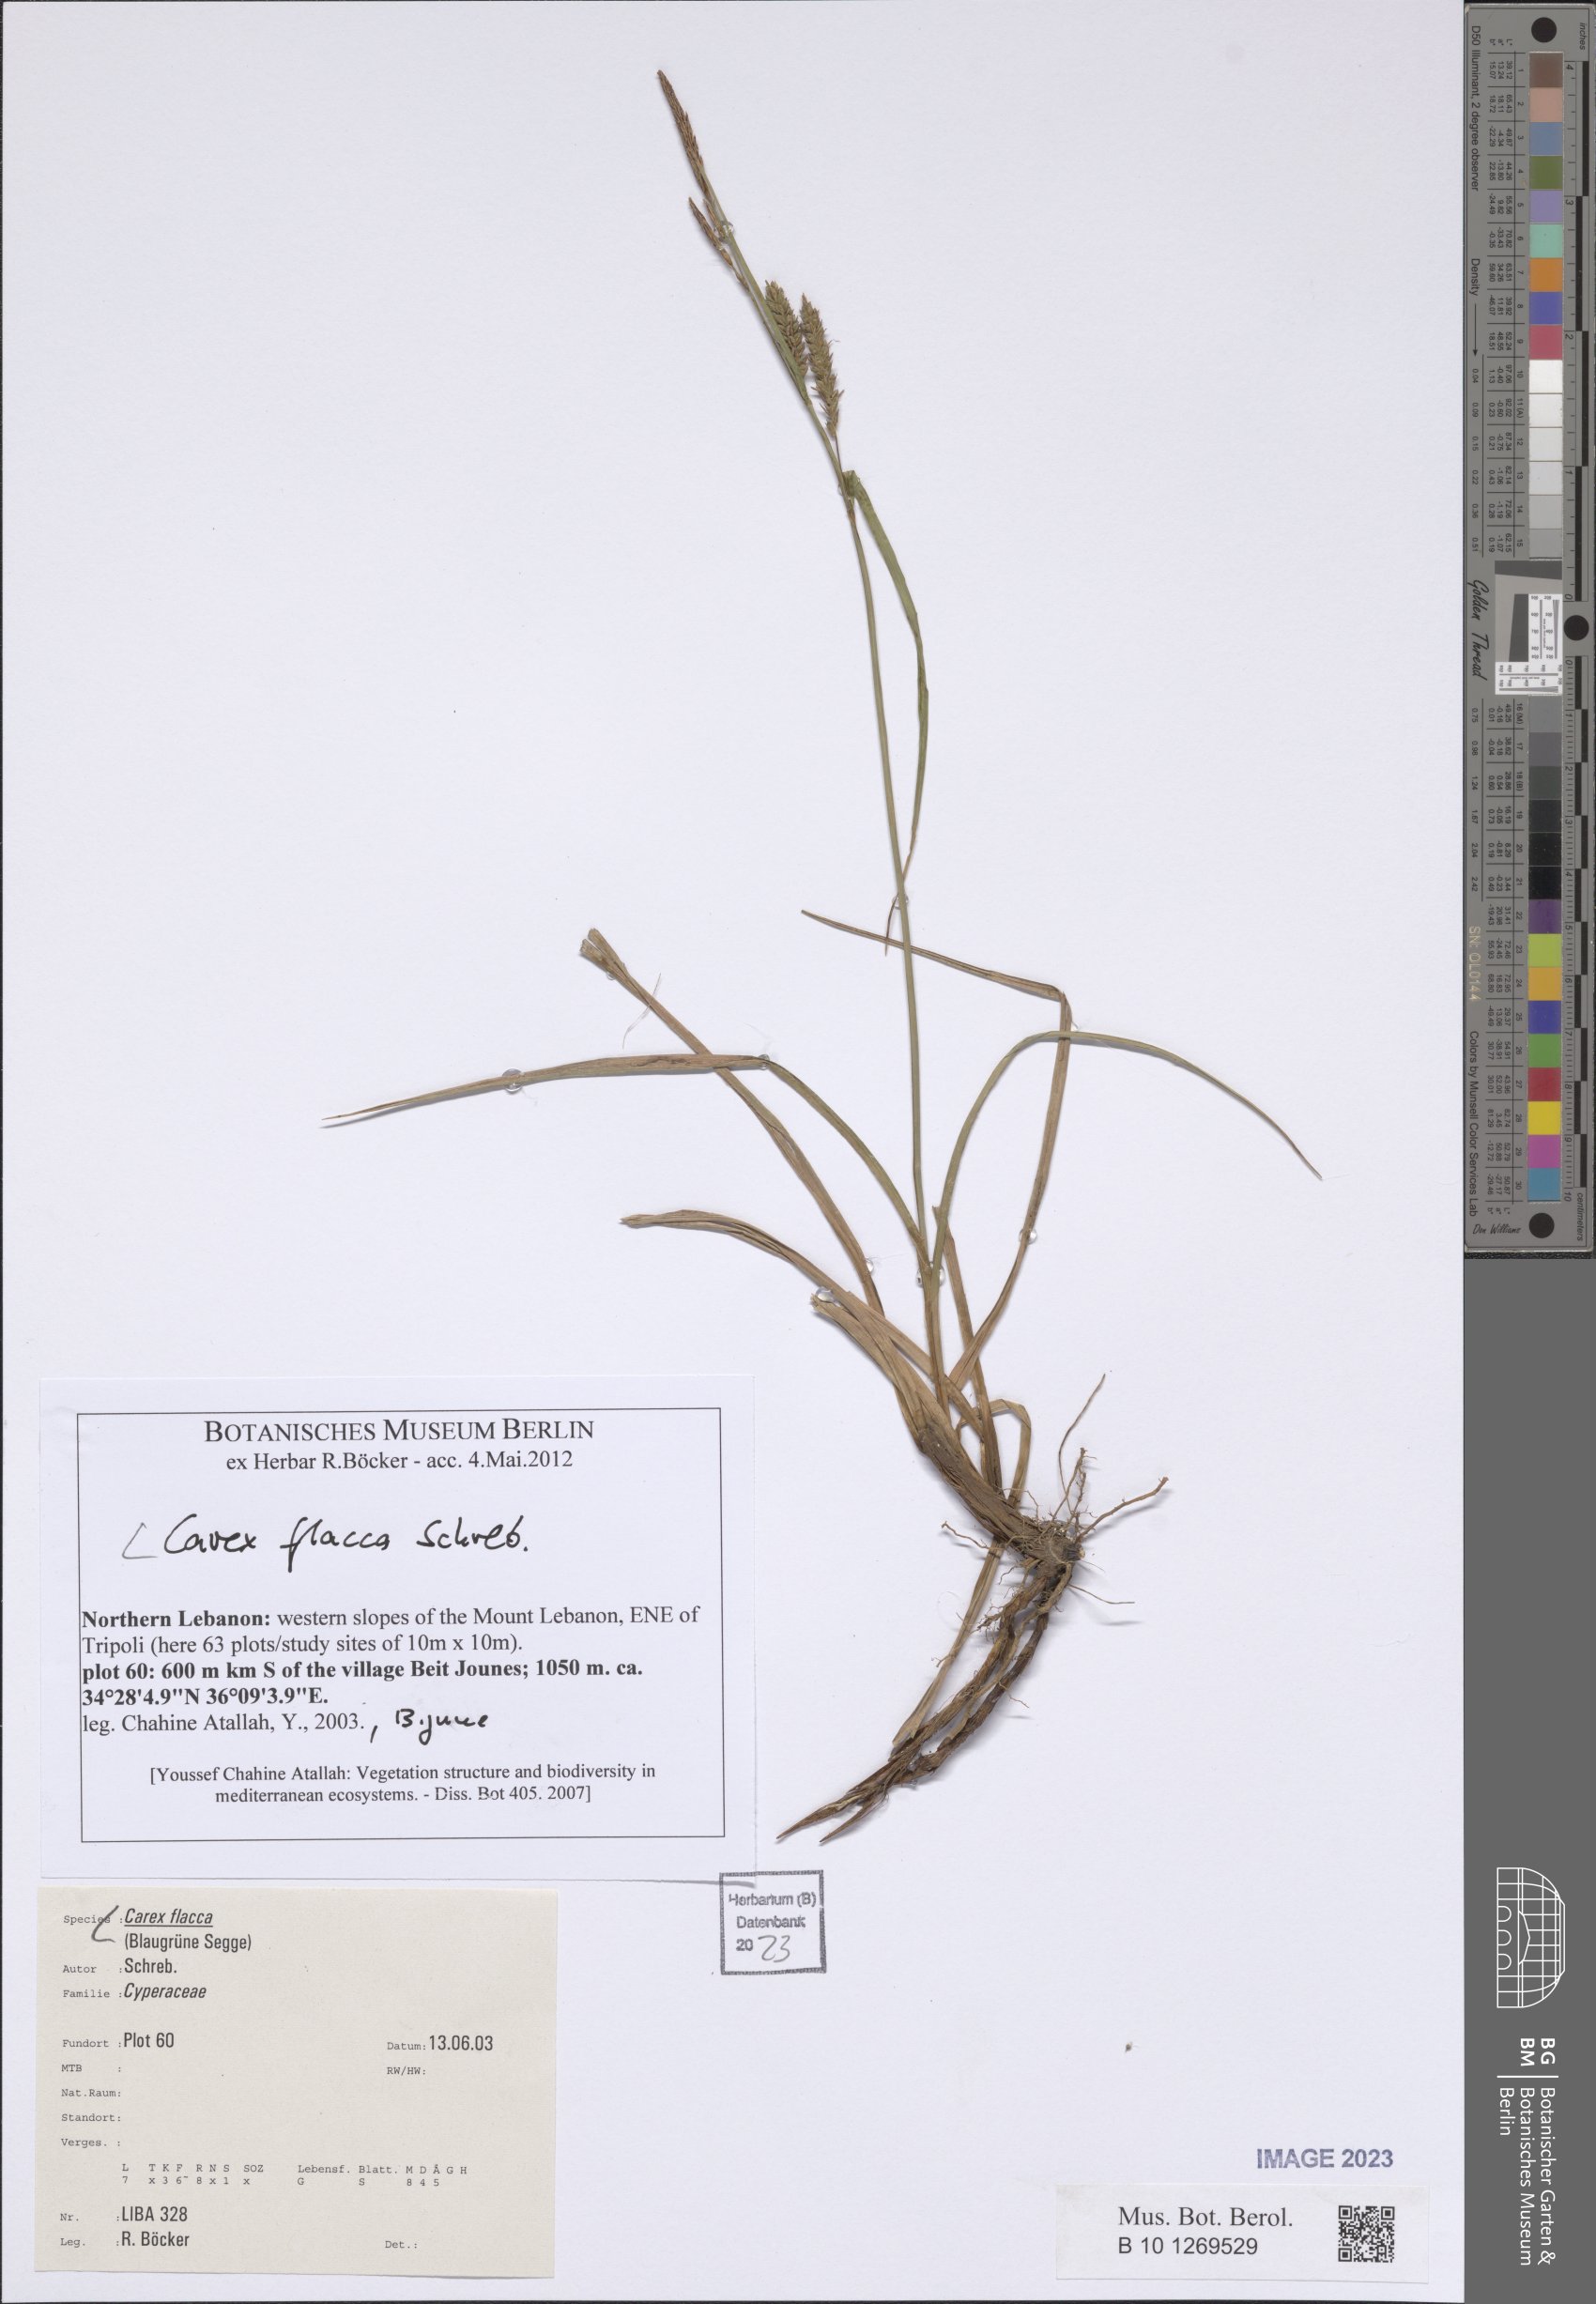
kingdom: Plantae
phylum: Tracheophyta
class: Liliopsida
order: Poales
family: Cyperaceae
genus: Carex
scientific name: Carex flacca
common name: Glaucous sedge
